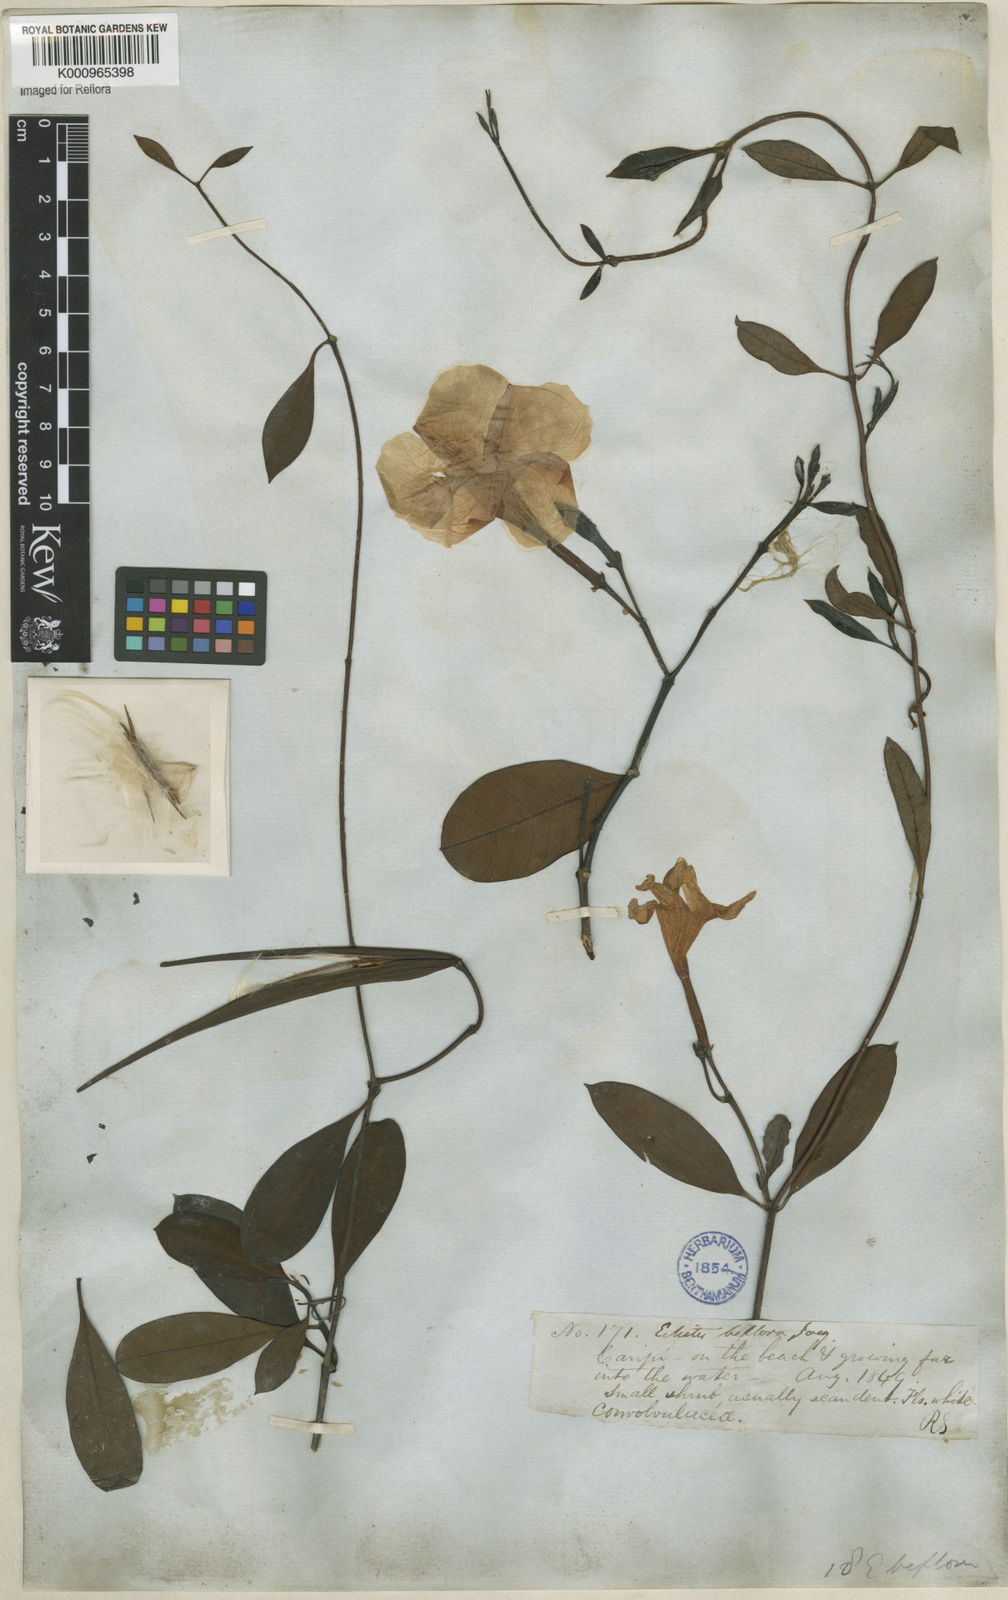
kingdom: Plantae
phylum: Tracheophyta
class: Magnoliopsida
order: Gentianales
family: Apocynaceae
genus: Rhabdadenia
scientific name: Rhabdadenia
